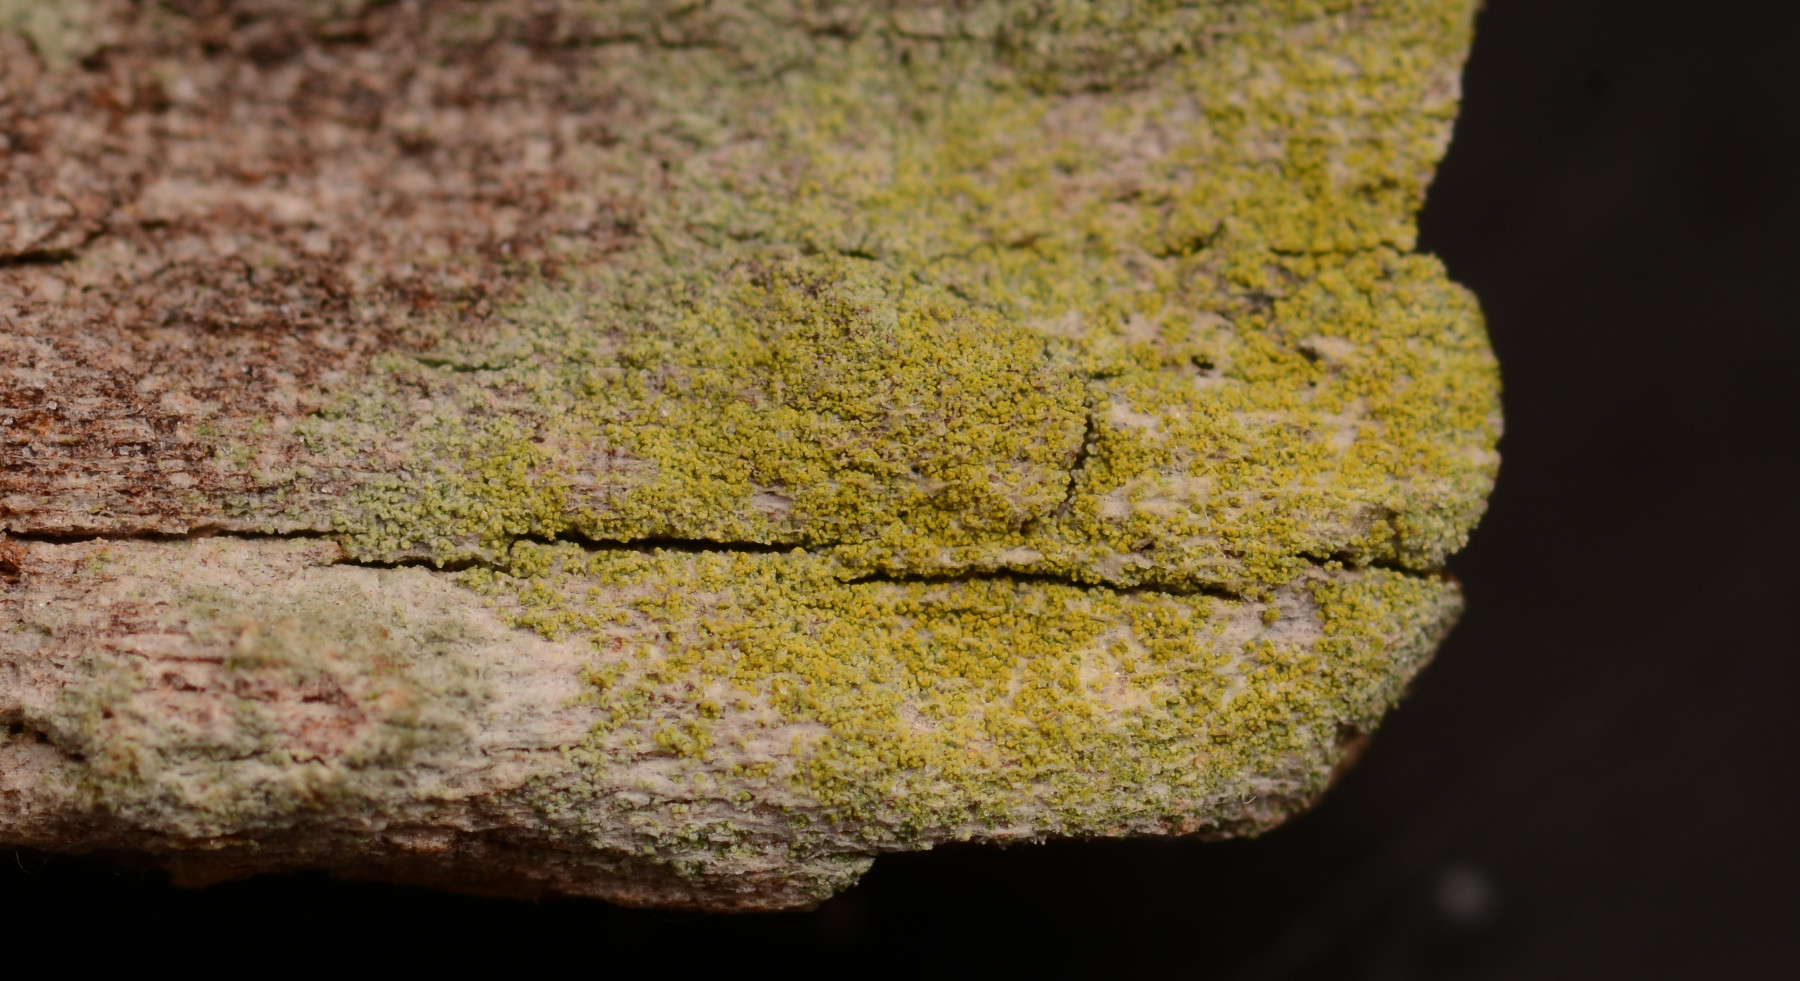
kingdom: Fungi
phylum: Ascomycota
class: Lecanoromycetes
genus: Scythioria
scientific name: Scythioria phlogina
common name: flammet orangelav
